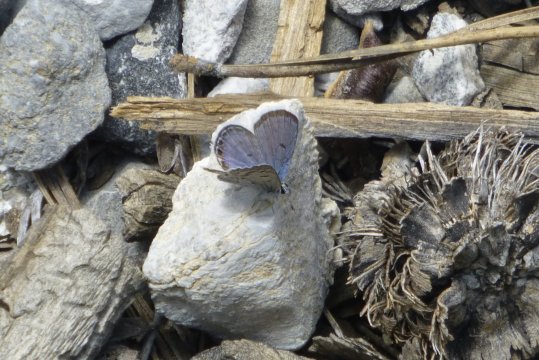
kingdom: Animalia
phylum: Arthropoda
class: Insecta
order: Lepidoptera
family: Lycaenidae
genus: Icaricia
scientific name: Icaricia shasta
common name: Shasta Blue
